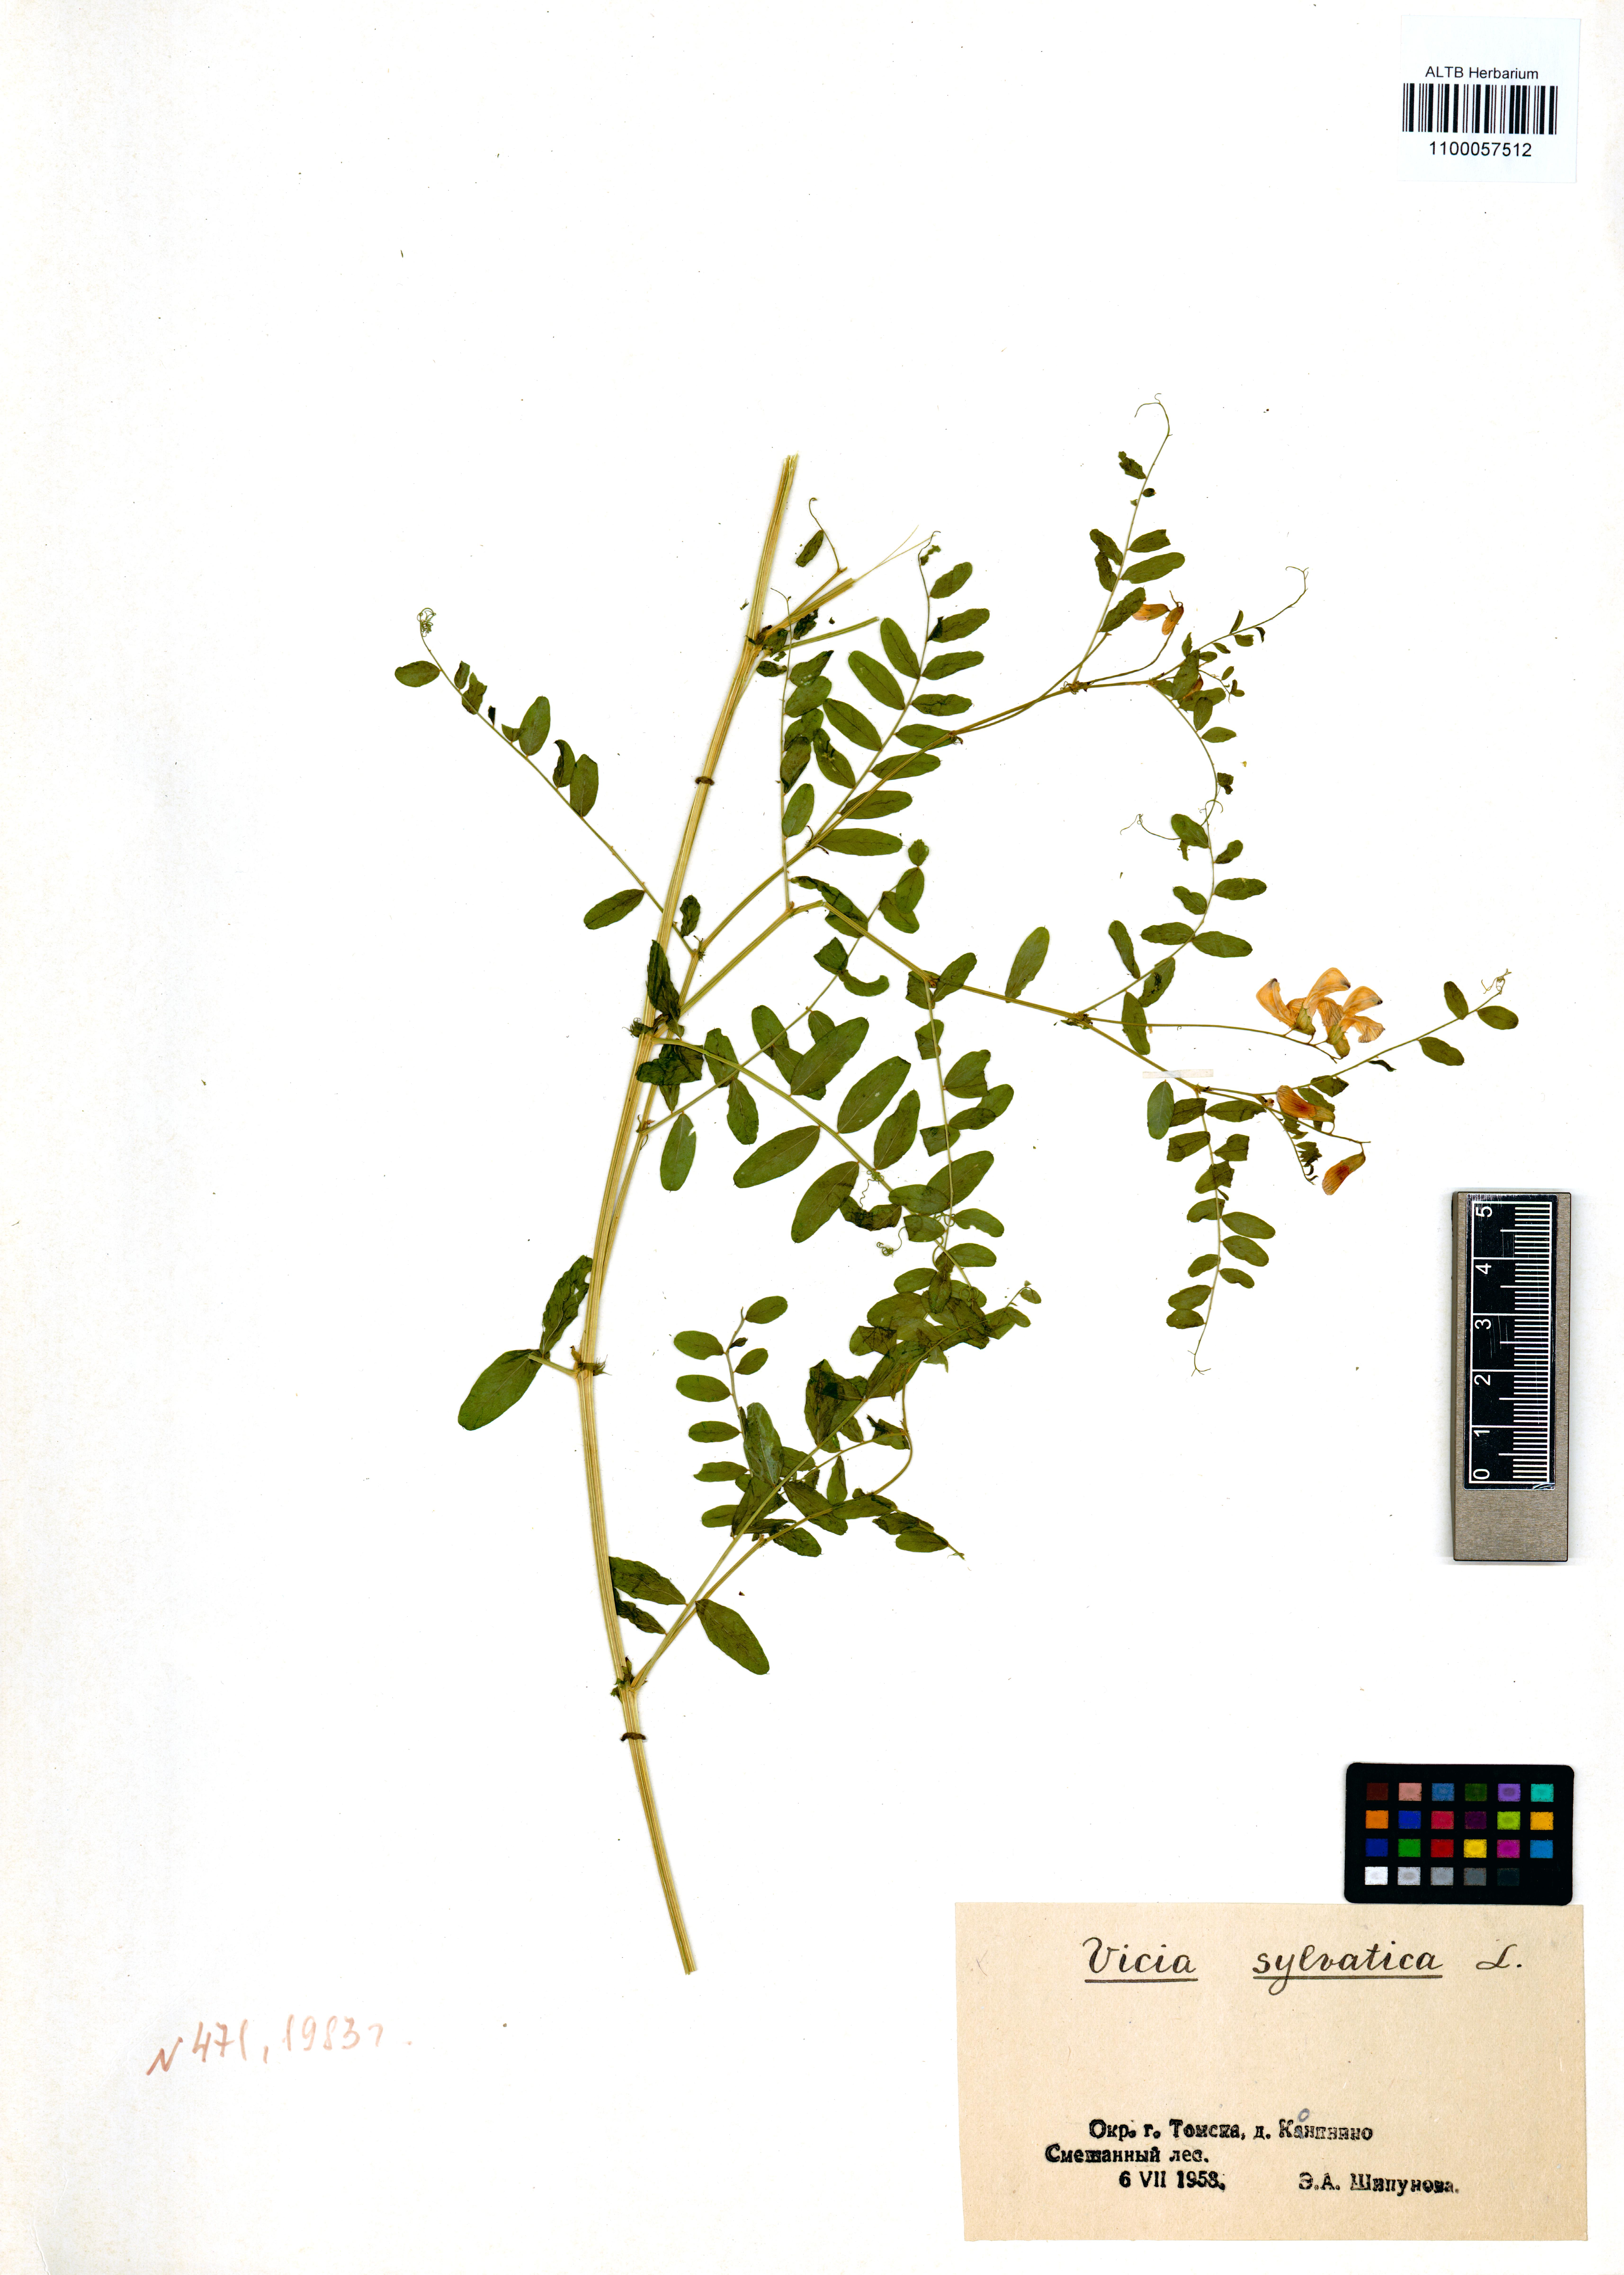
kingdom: Plantae
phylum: Tracheophyta
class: Magnoliopsida
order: Fabales
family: Fabaceae
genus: Vicia
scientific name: Vicia sylvatica
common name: Wood vetch
